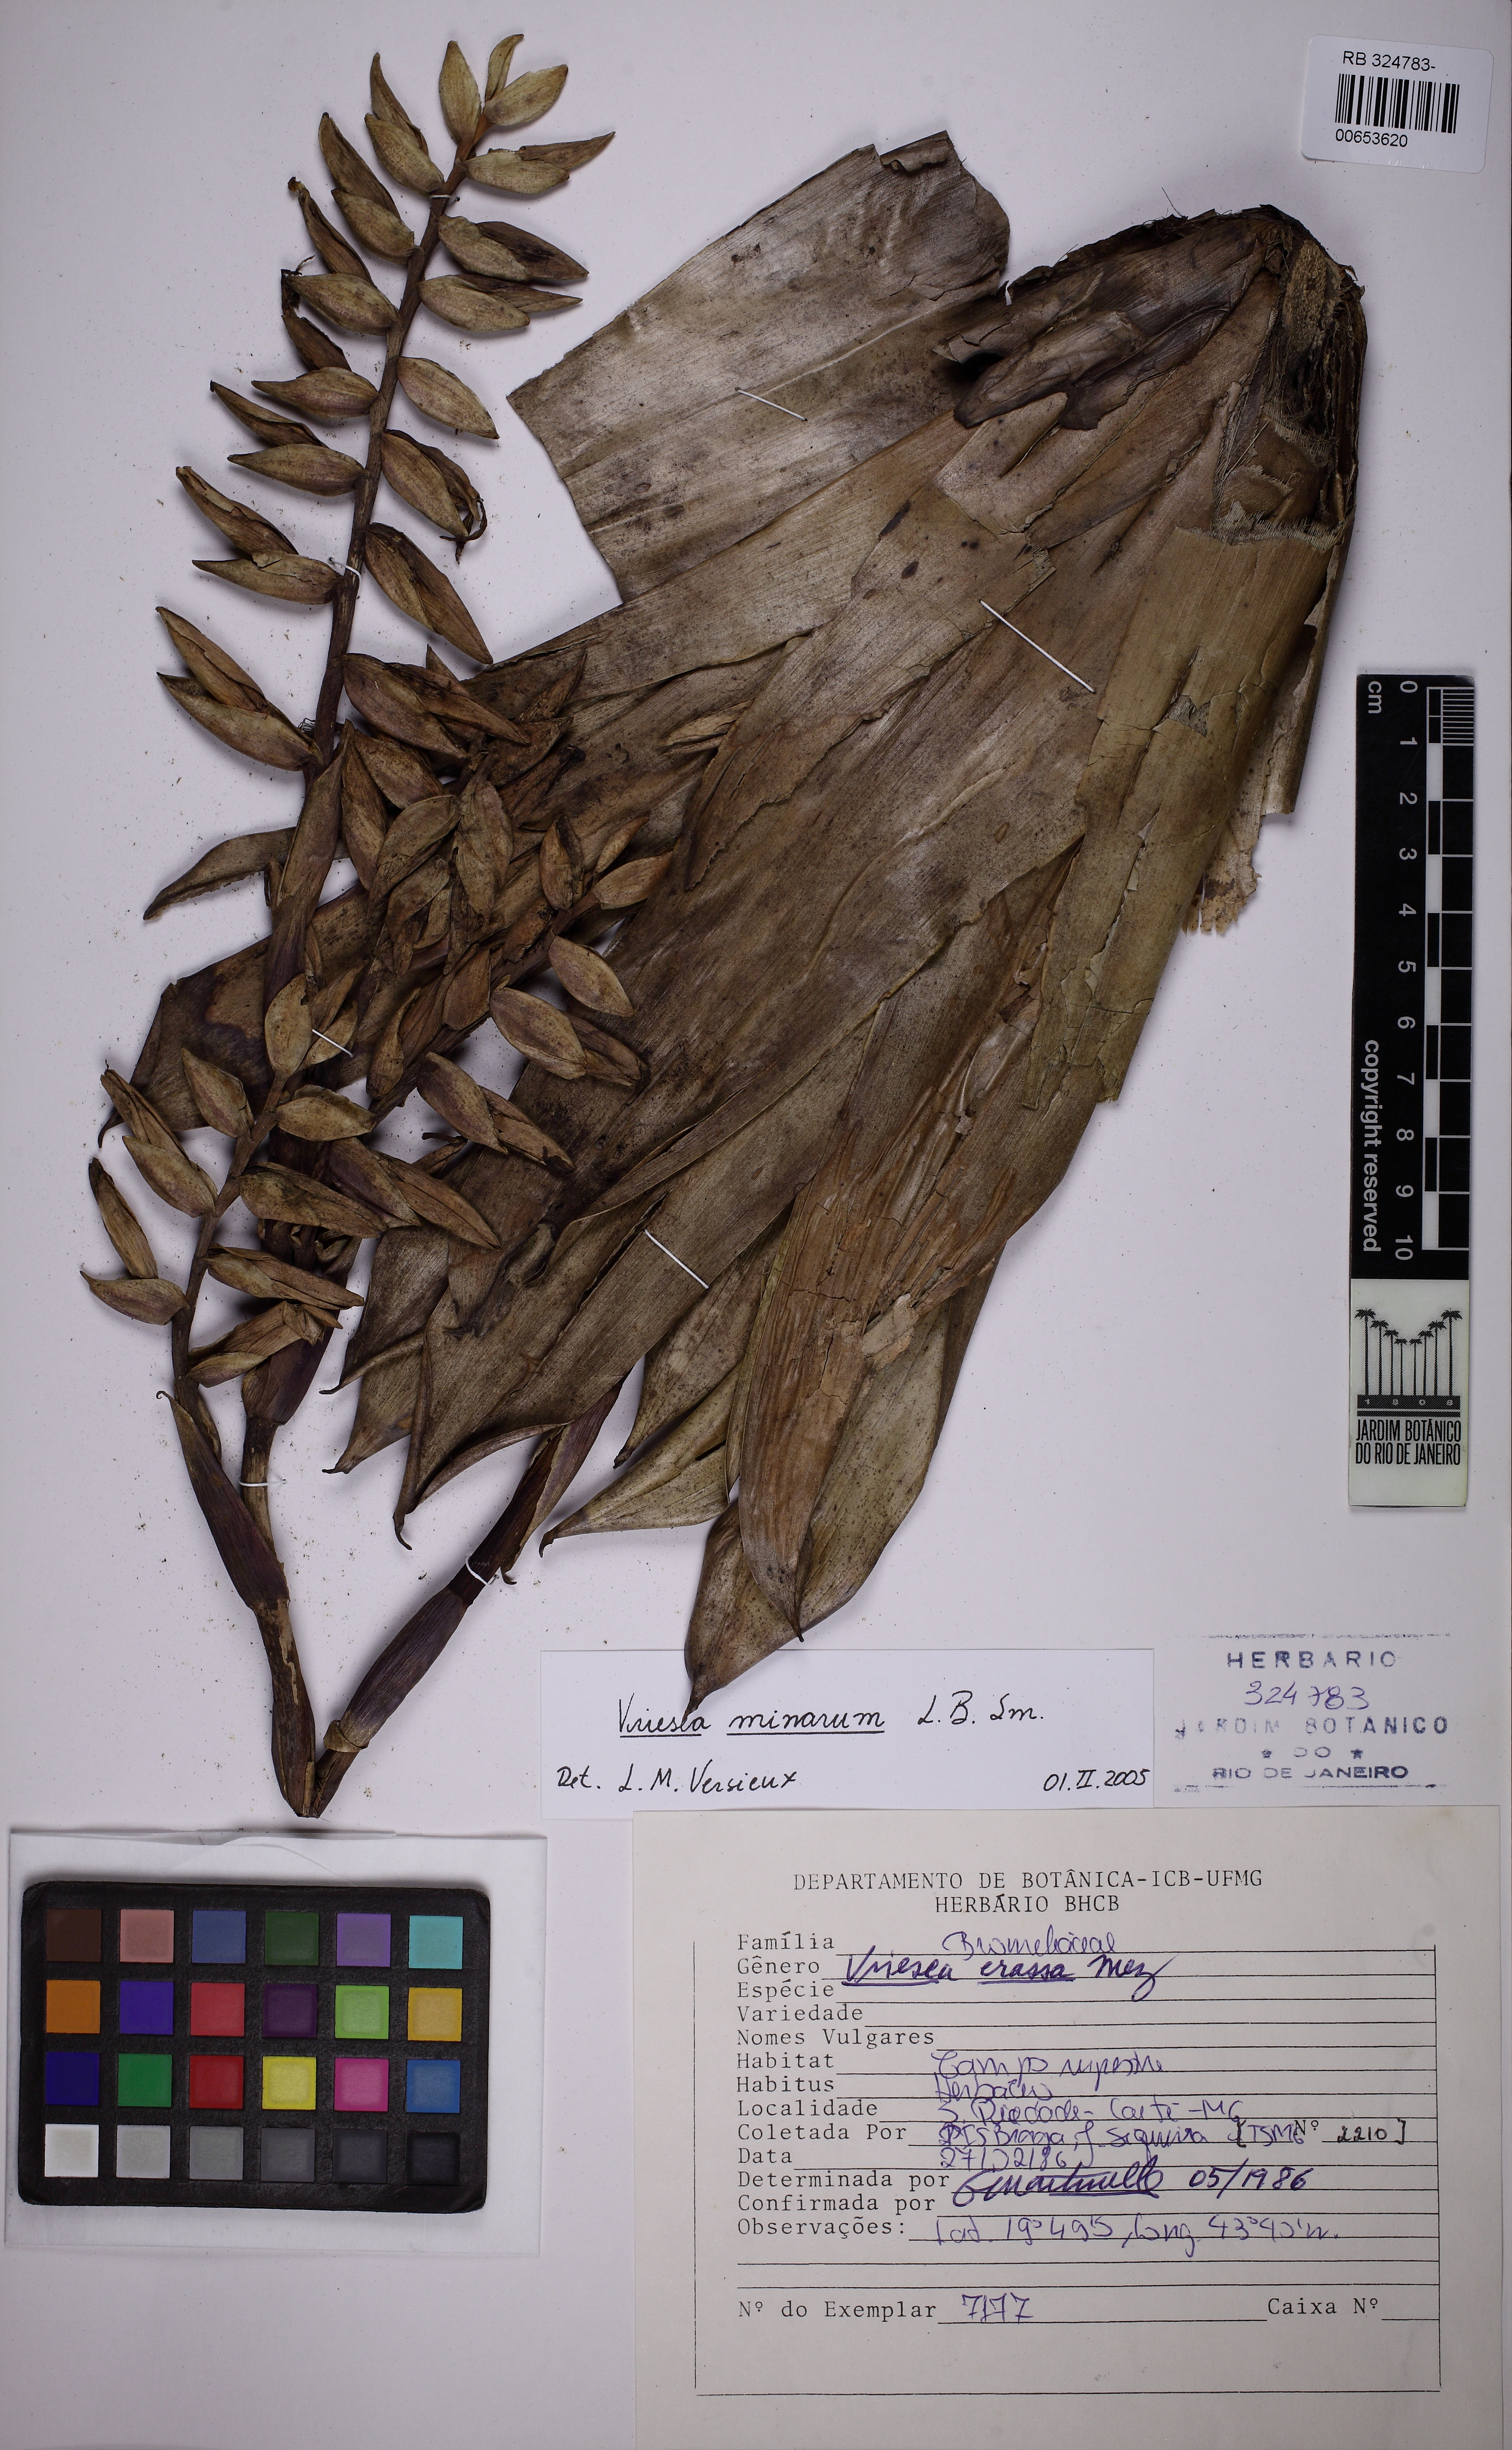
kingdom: Plantae
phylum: Tracheophyta
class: Liliopsida
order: Poales
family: Bromeliaceae
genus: Vriesea
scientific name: Vriesea minarum
